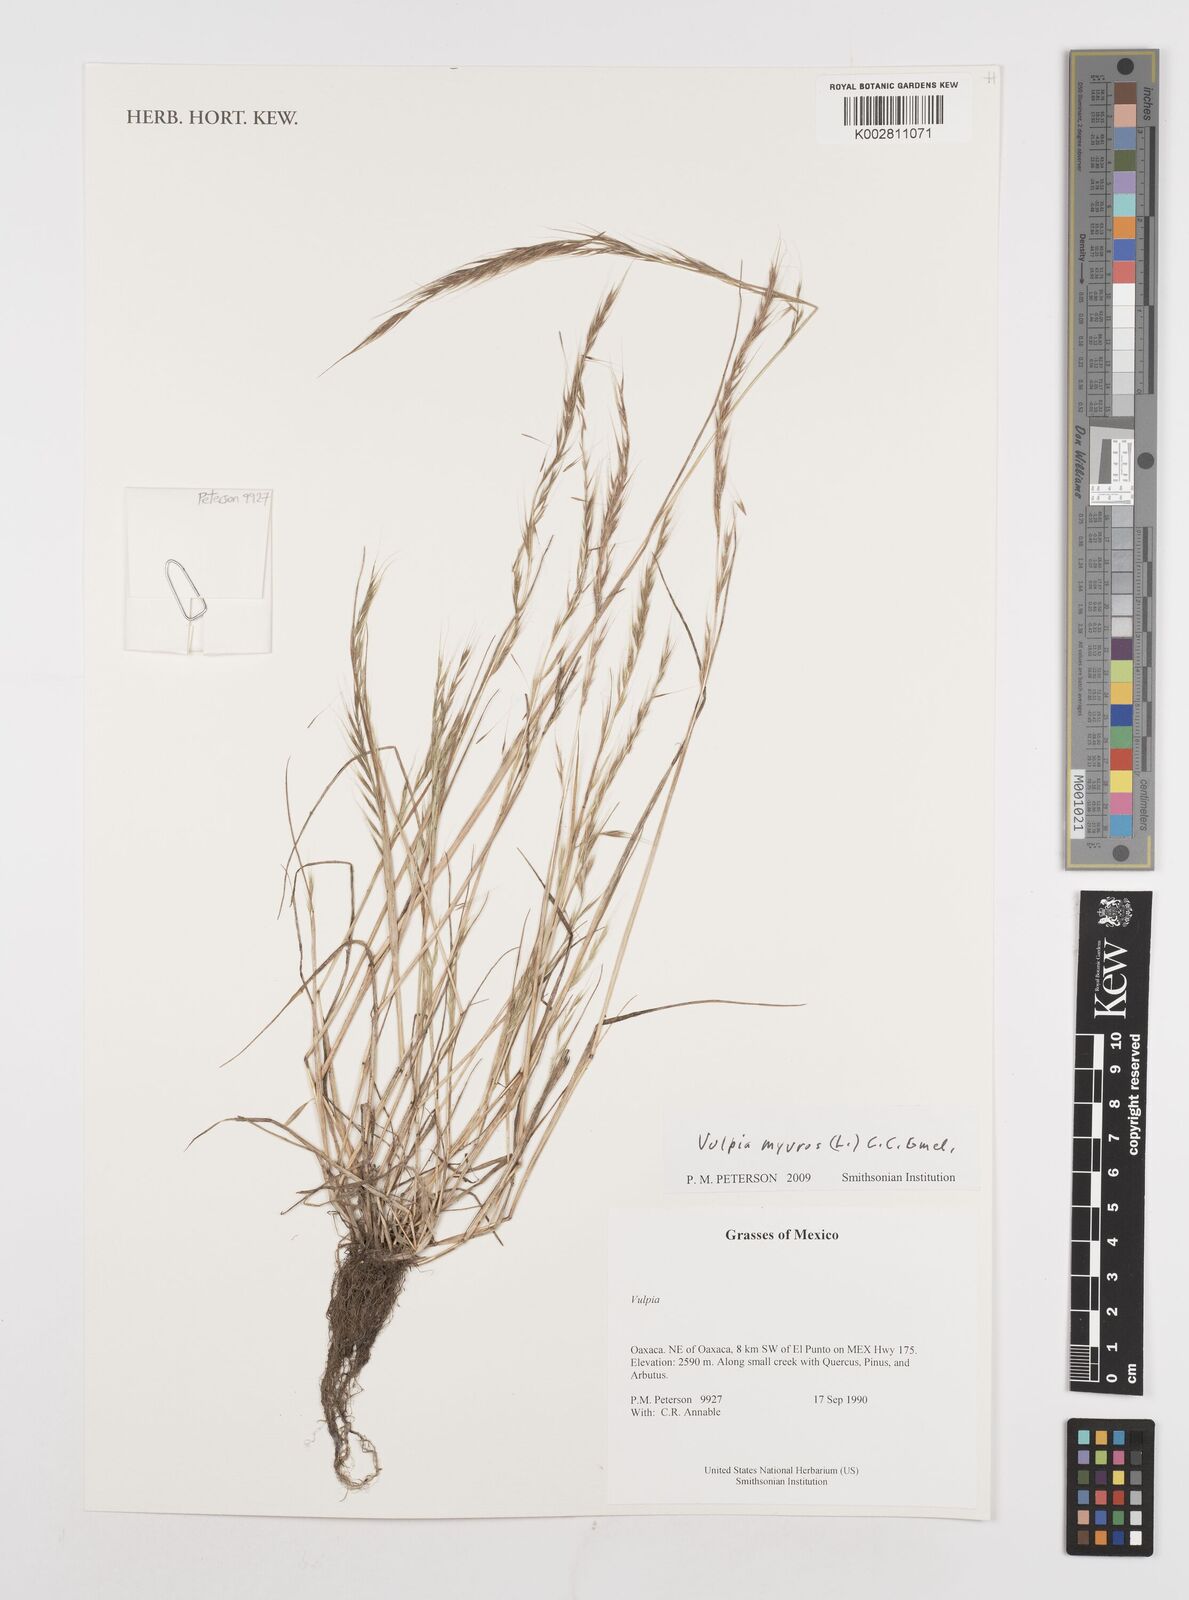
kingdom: Plantae
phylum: Tracheophyta
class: Liliopsida
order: Poales
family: Poaceae
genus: Festuca
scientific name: Festuca myuros
